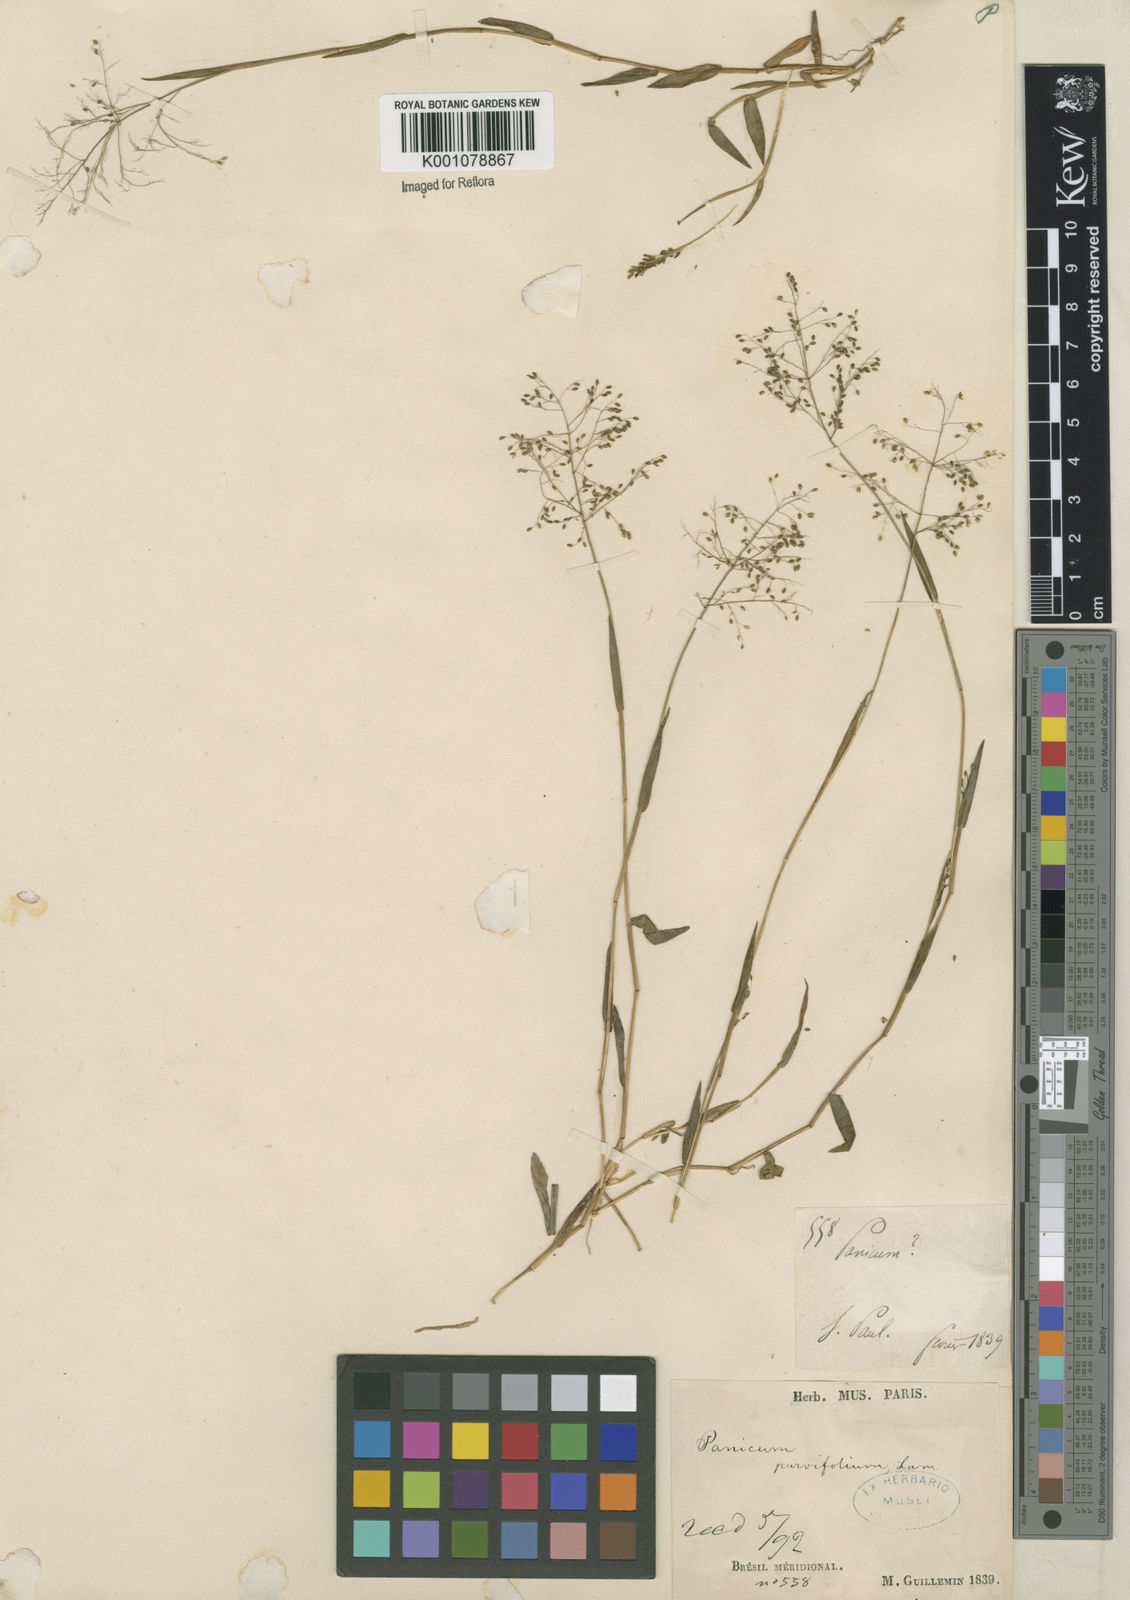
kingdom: Plantae
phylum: Tracheophyta
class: Liliopsida
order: Poales
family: Poaceae
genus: Trichanthecium
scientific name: Trichanthecium parvifolium
